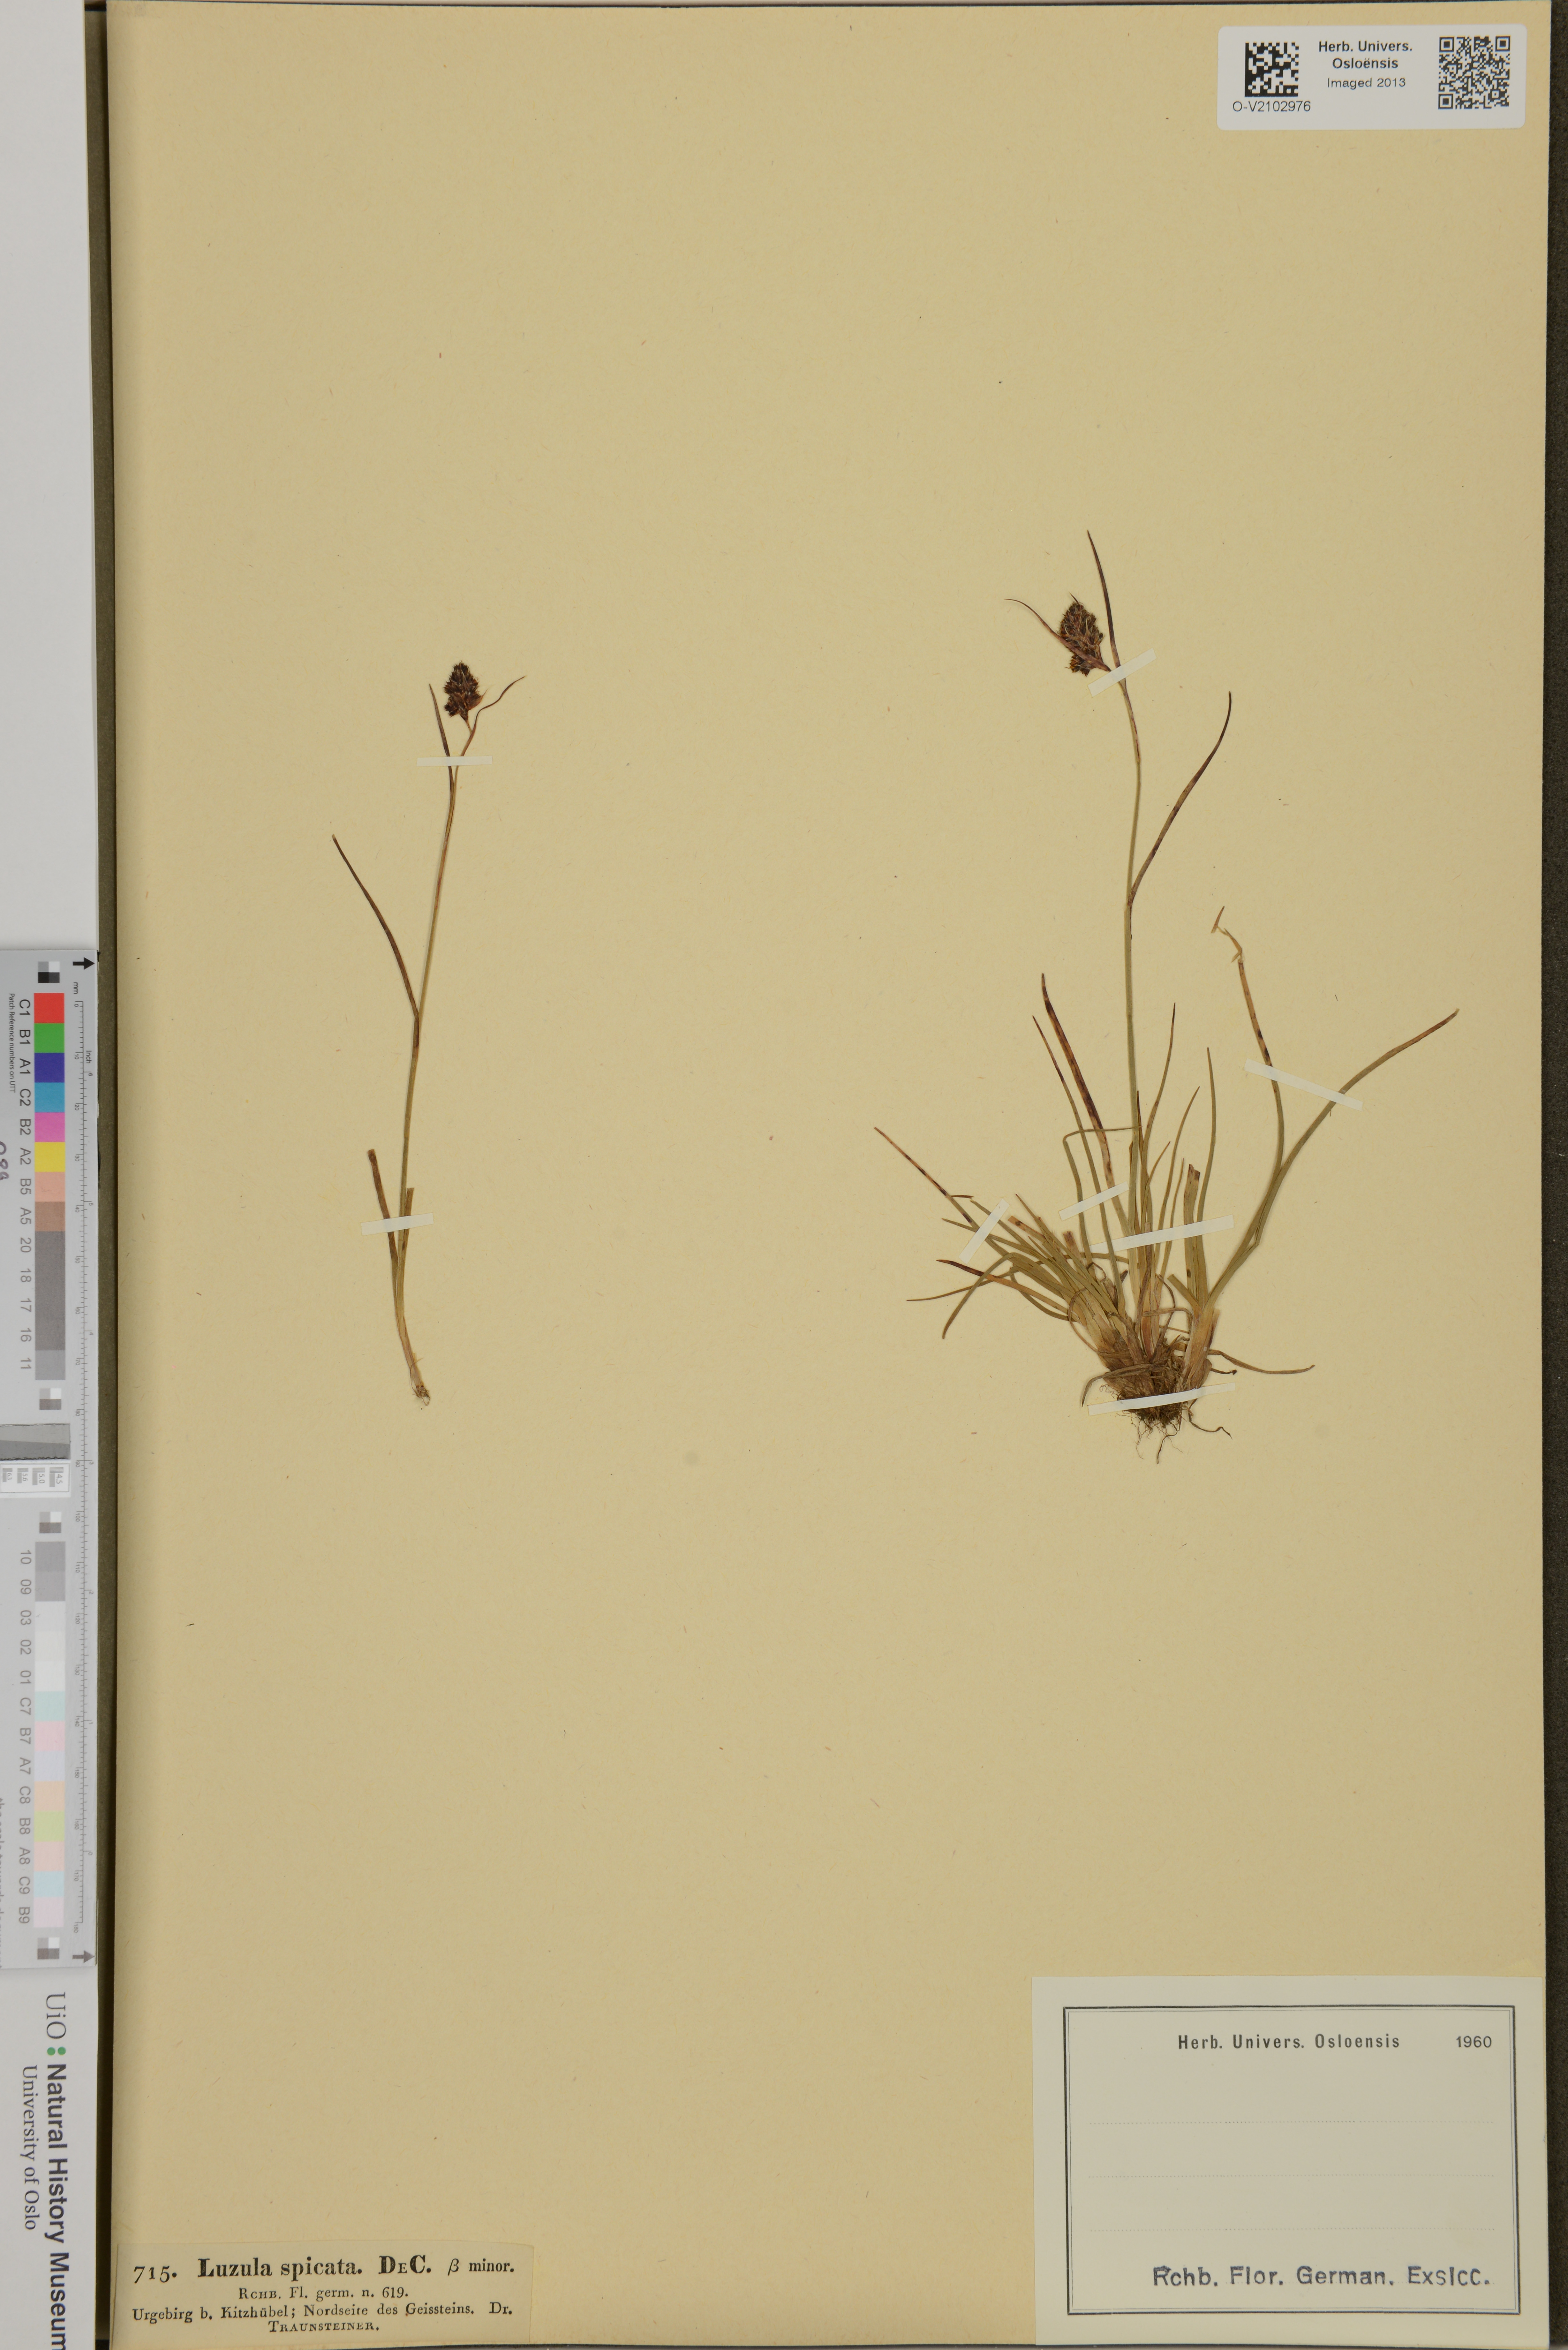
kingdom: Plantae
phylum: Tracheophyta
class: Liliopsida
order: Poales
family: Juncaceae
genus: Luzula
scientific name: Luzula spicata
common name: Spiked wood-rush
